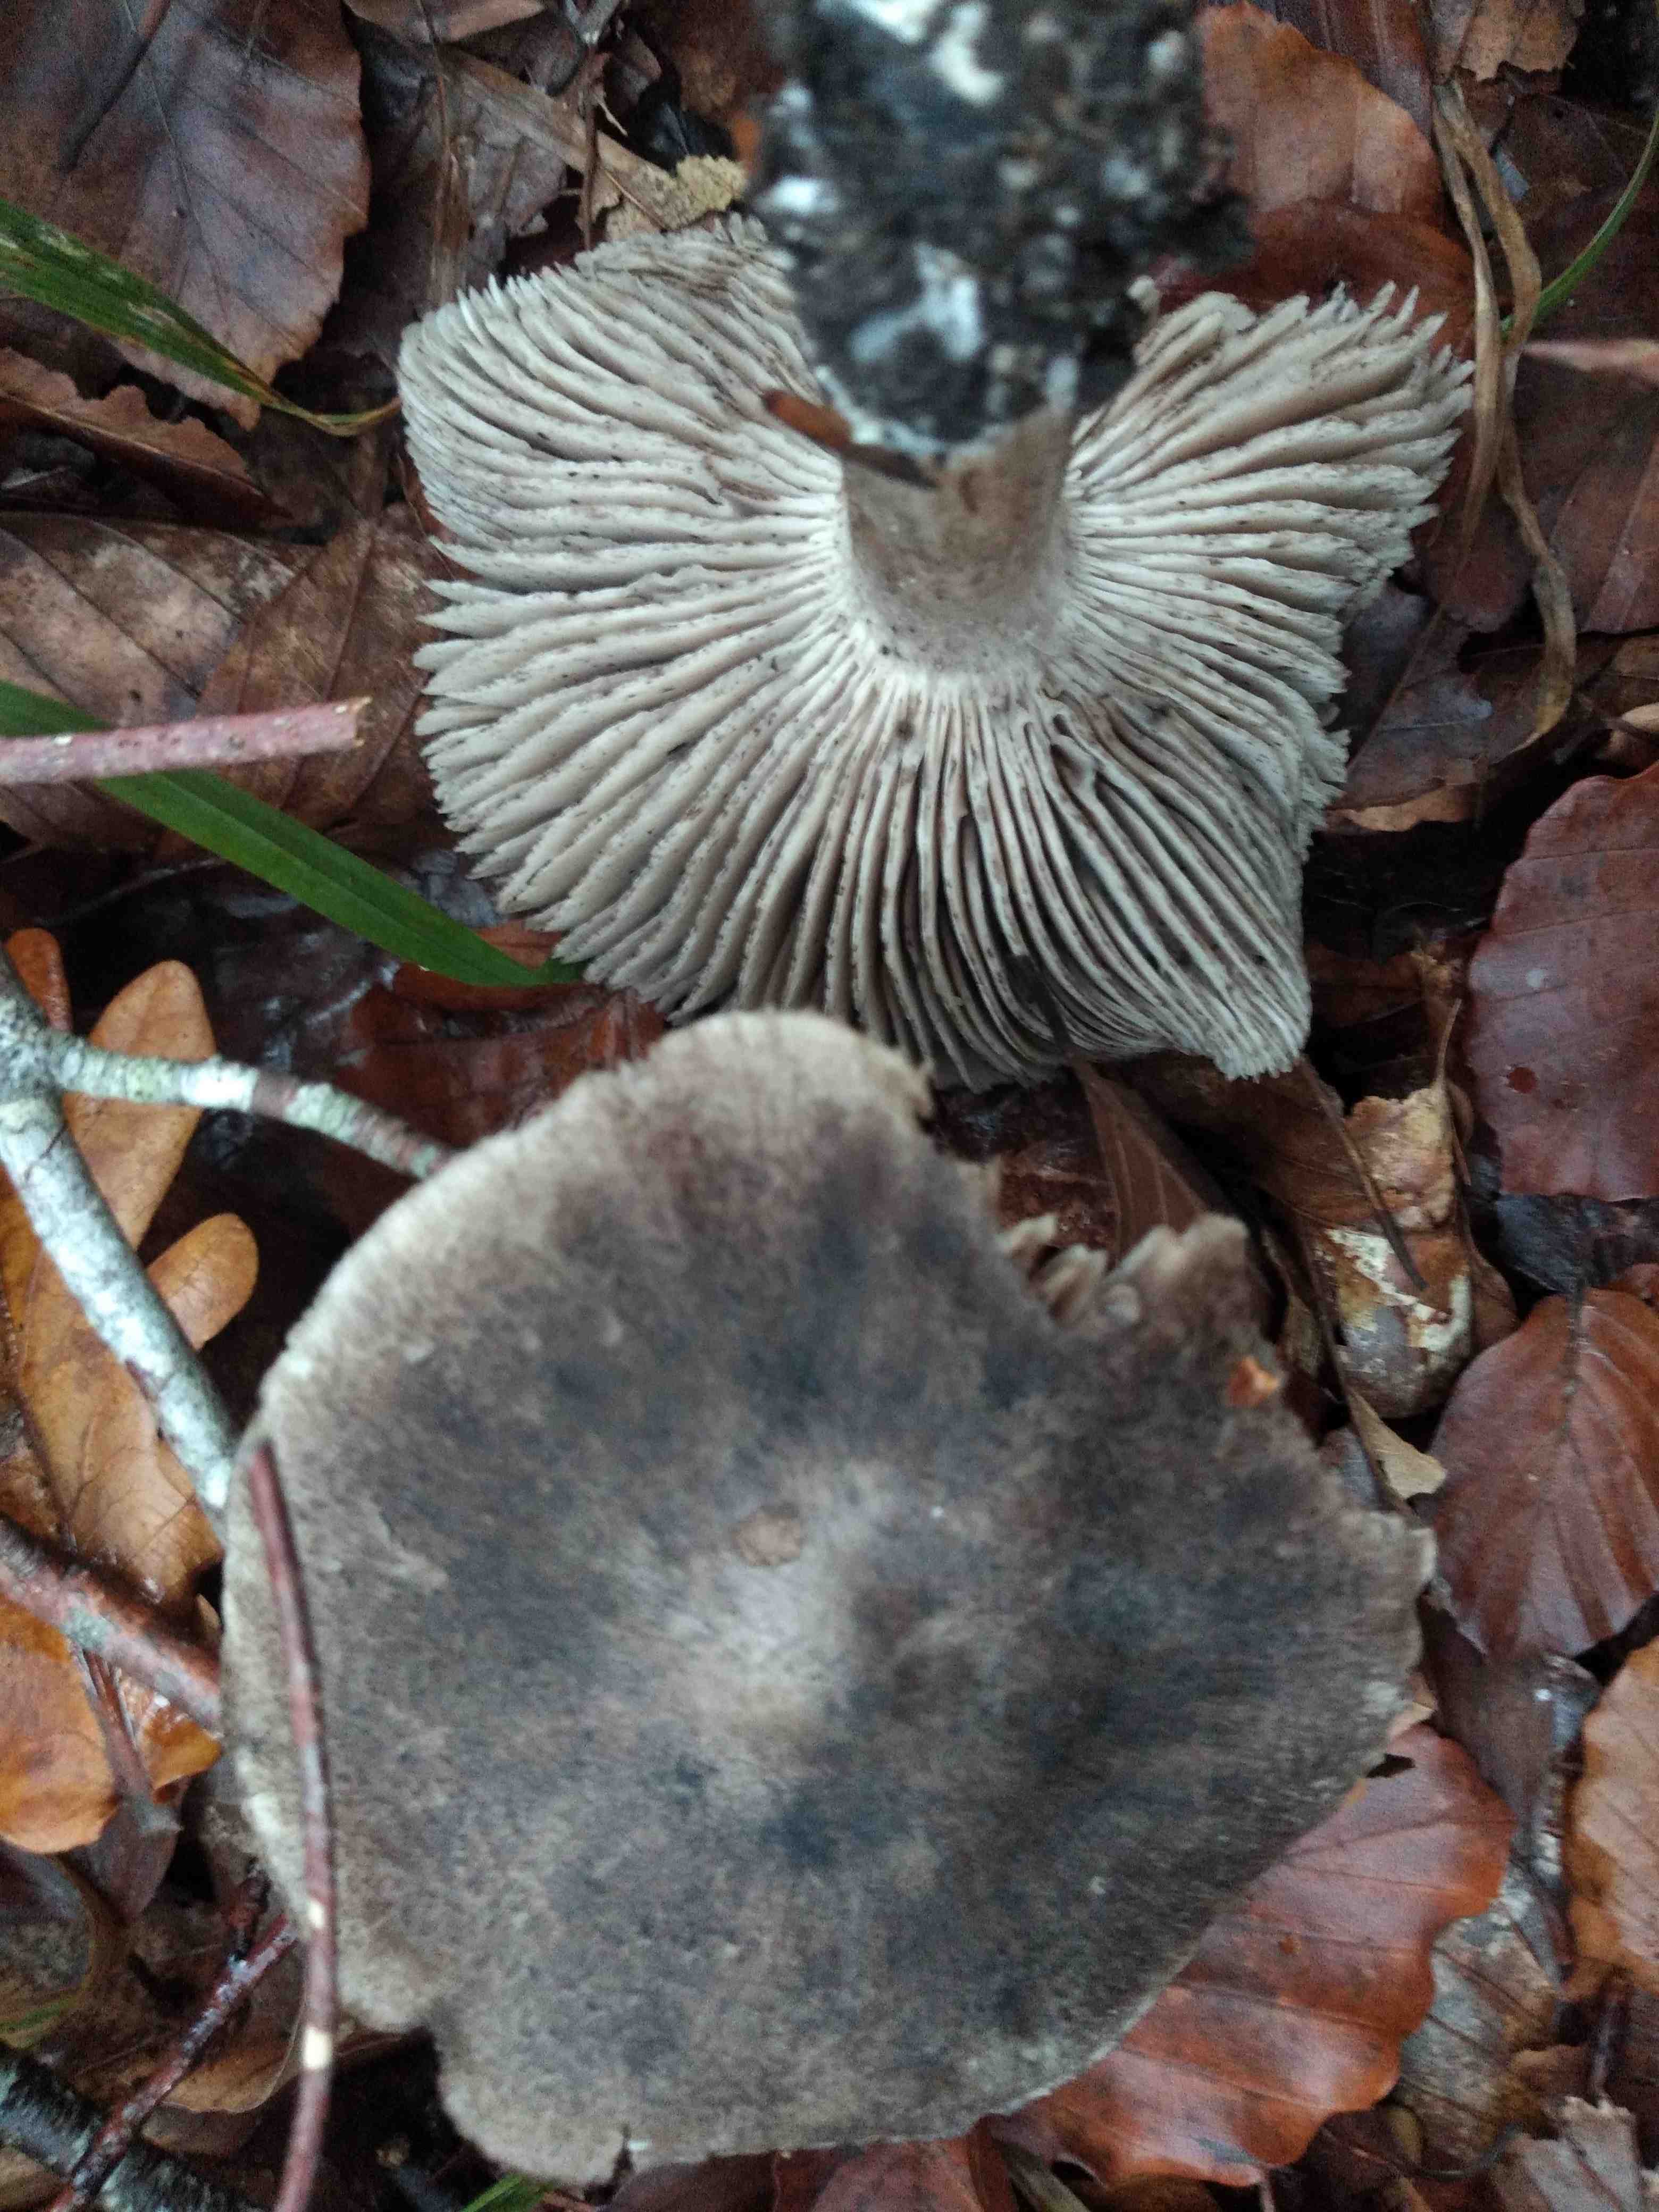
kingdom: Fungi
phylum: Basidiomycota
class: Agaricomycetes
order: Agaricales
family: Tricholomataceae
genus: Tricholoma
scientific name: Tricholoma sciodes
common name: stribet ridderhat
